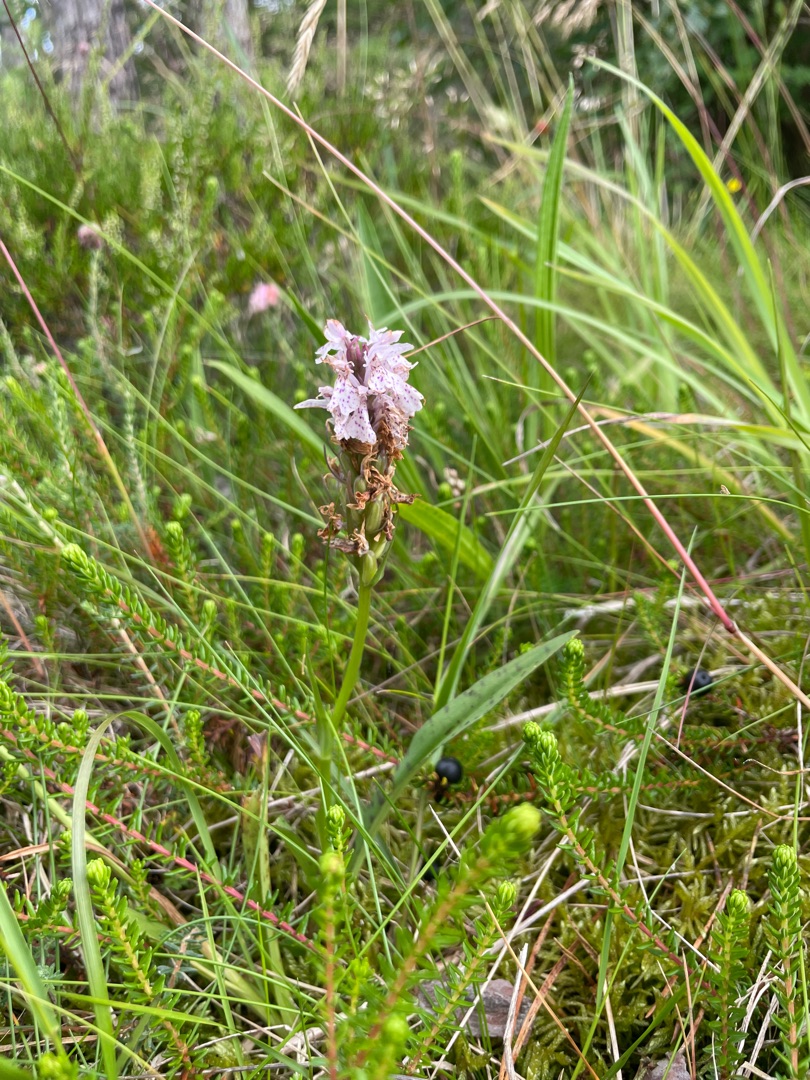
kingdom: Plantae
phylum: Tracheophyta
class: Liliopsida
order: Asparagales
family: Orchidaceae
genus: Dactylorhiza
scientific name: Dactylorhiza maculata
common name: Plettet gøgeurt (underart)
